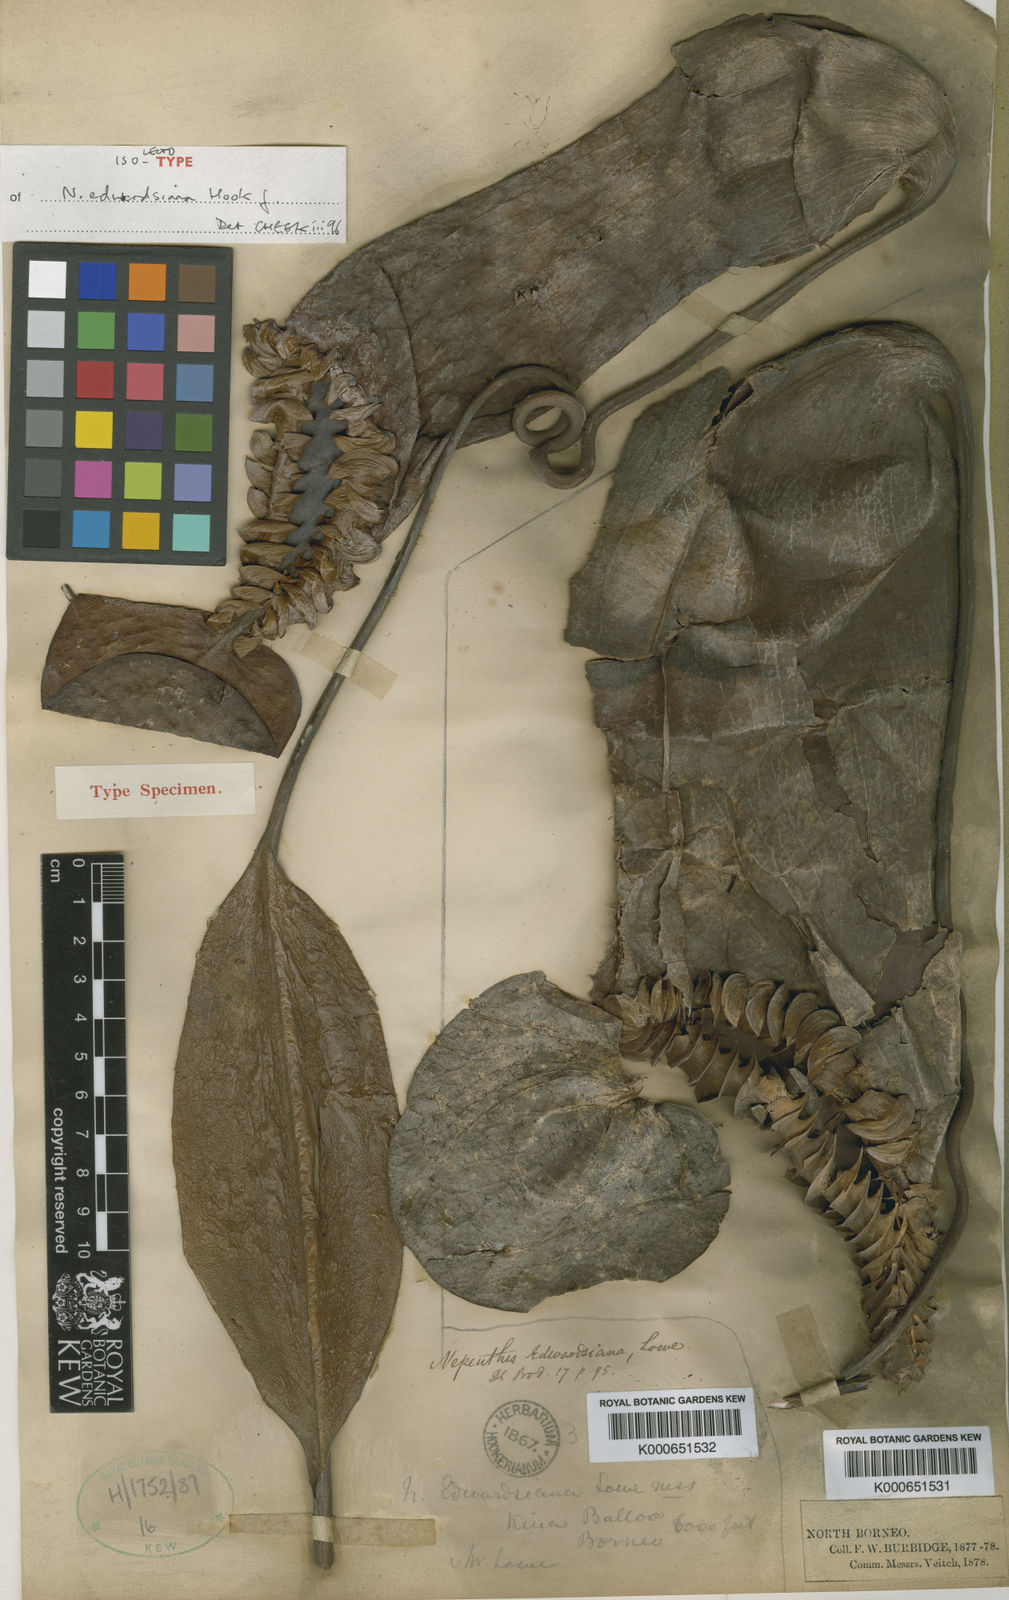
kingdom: Plantae
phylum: Tracheophyta
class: Magnoliopsida
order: Caryophyllales
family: Nepenthaceae
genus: Nepenthes
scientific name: Nepenthes edwardsiana
